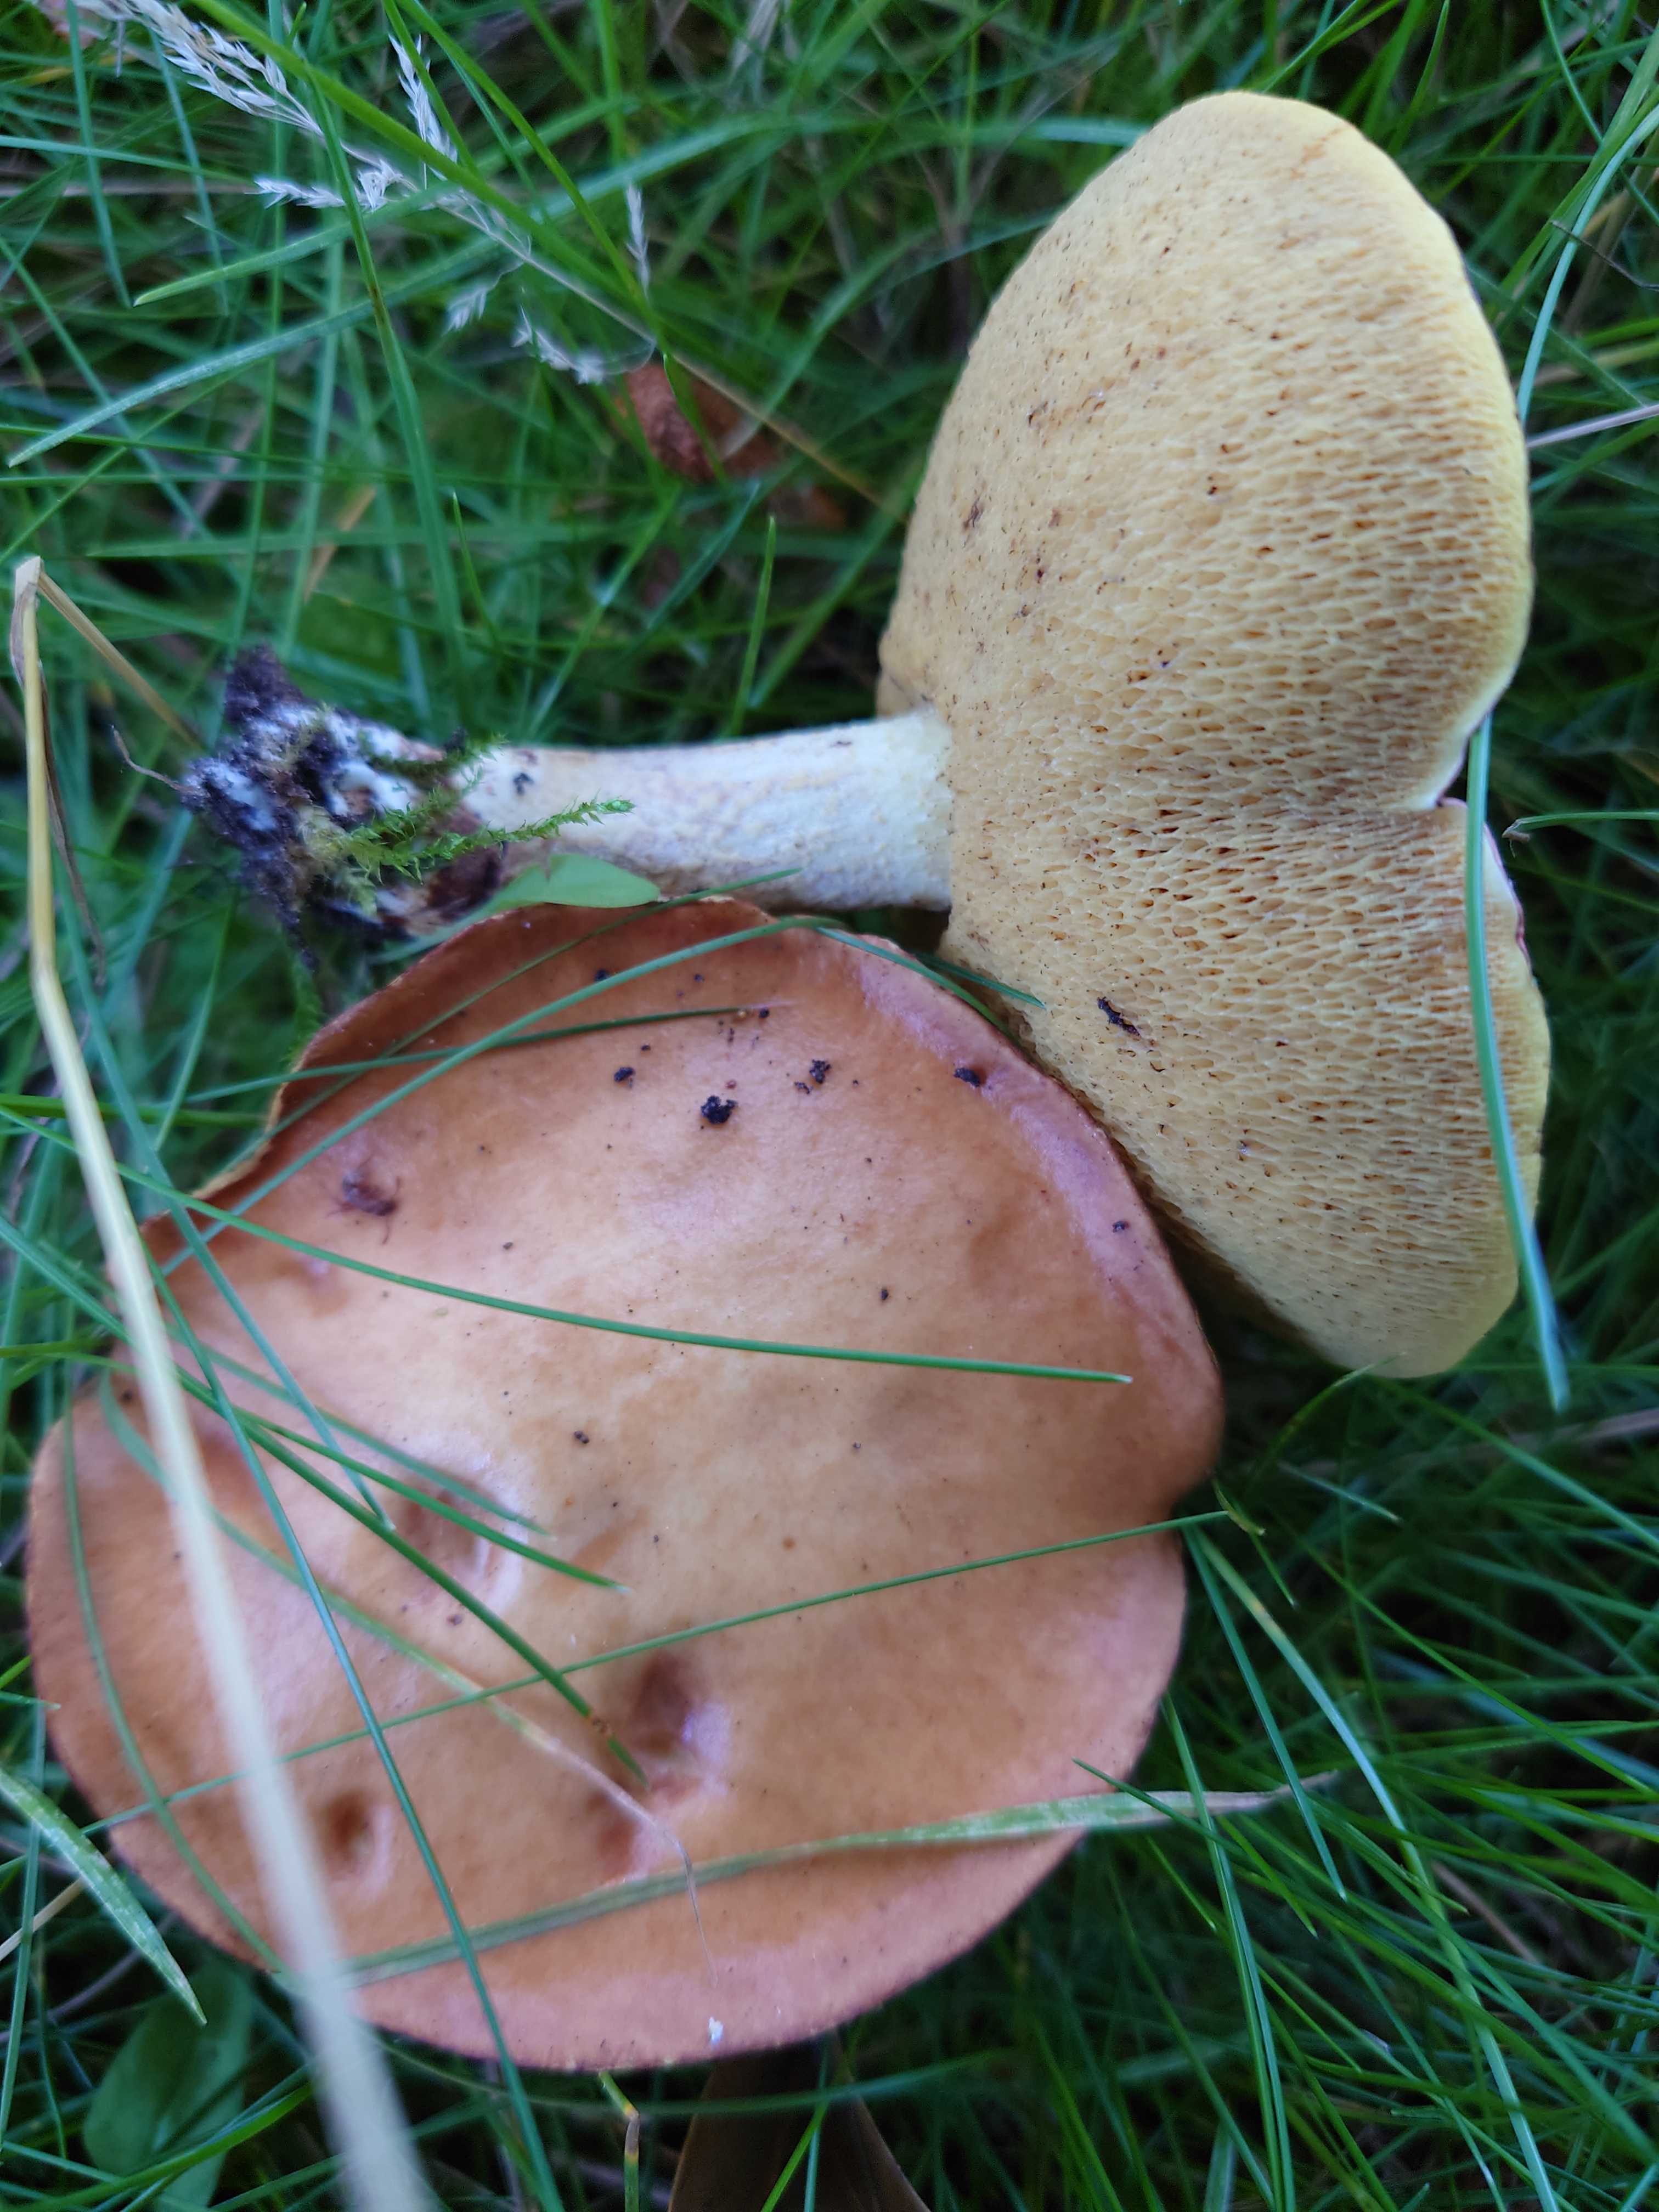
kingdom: Fungi
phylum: Basidiomycota
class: Agaricomycetes
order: Boletales
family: Suillaceae
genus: Suillus
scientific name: Suillus granulatus
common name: kornet slimrørhat
